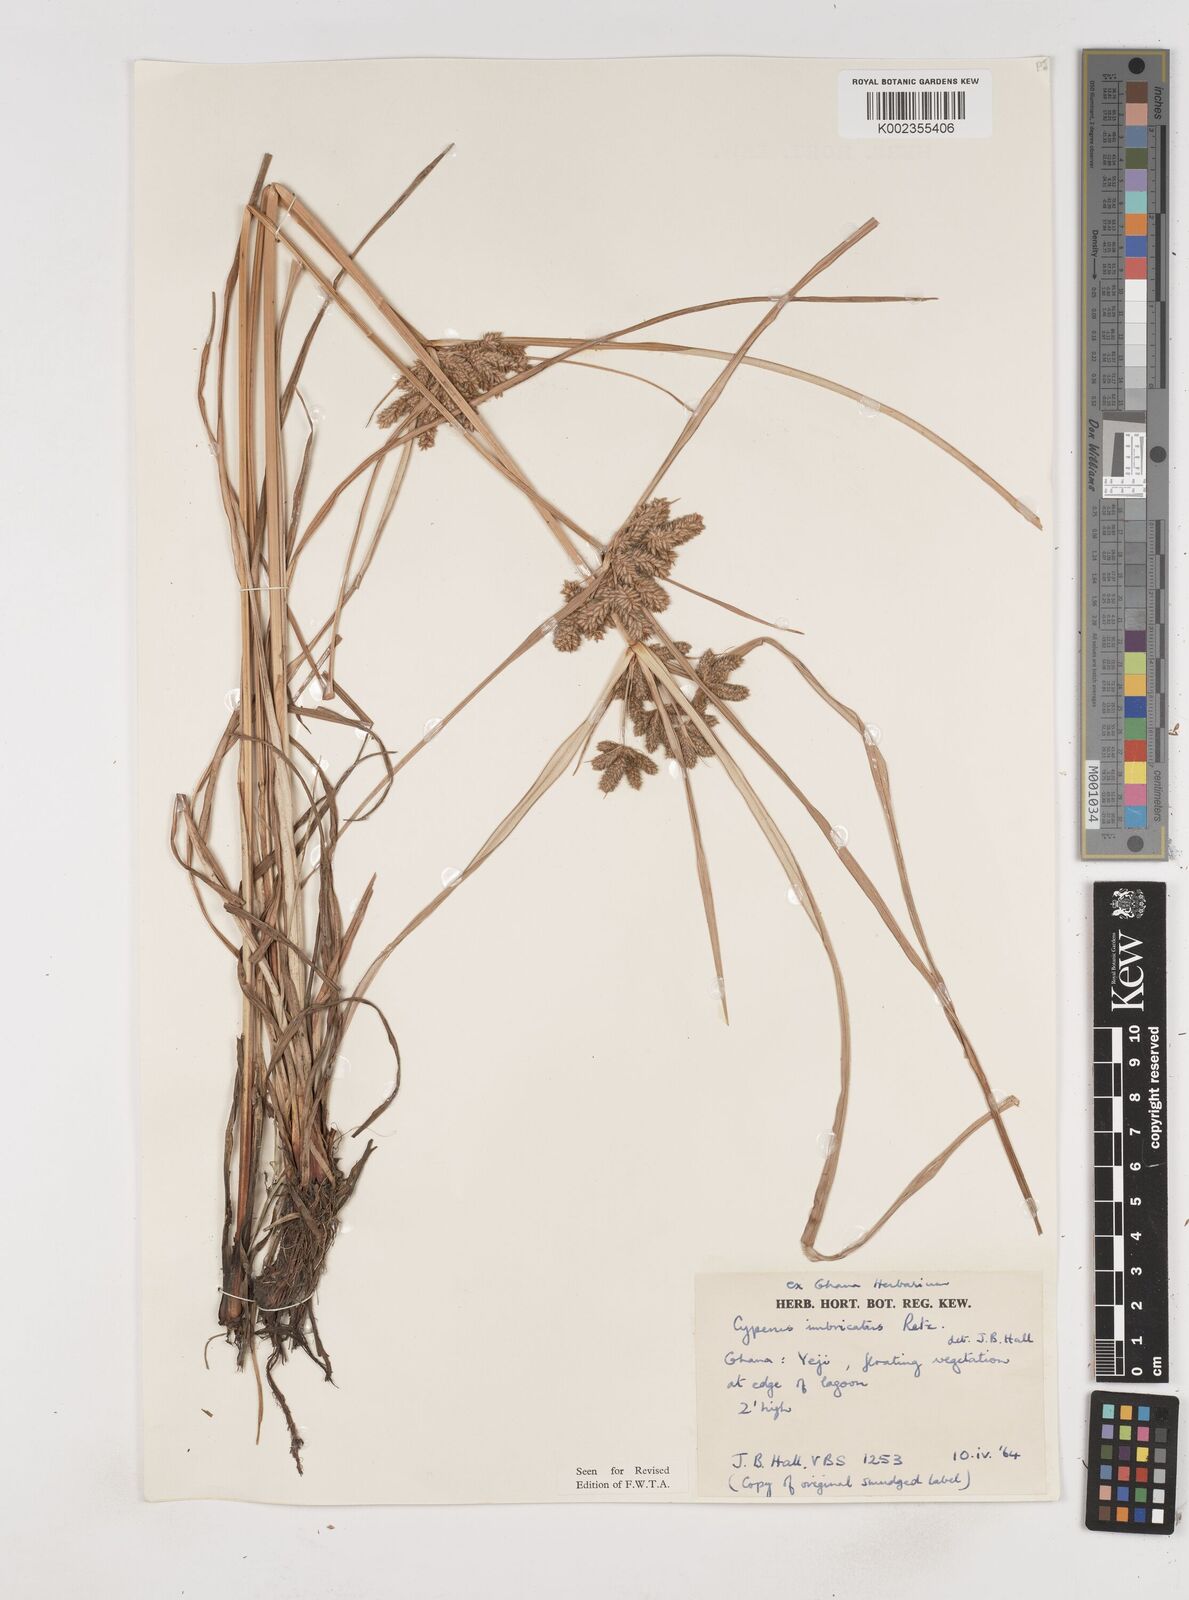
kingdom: Plantae
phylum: Tracheophyta
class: Liliopsida
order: Poales
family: Cyperaceae
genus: Cyperus
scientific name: Cyperus imbricatus
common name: Shingle flatsedge
